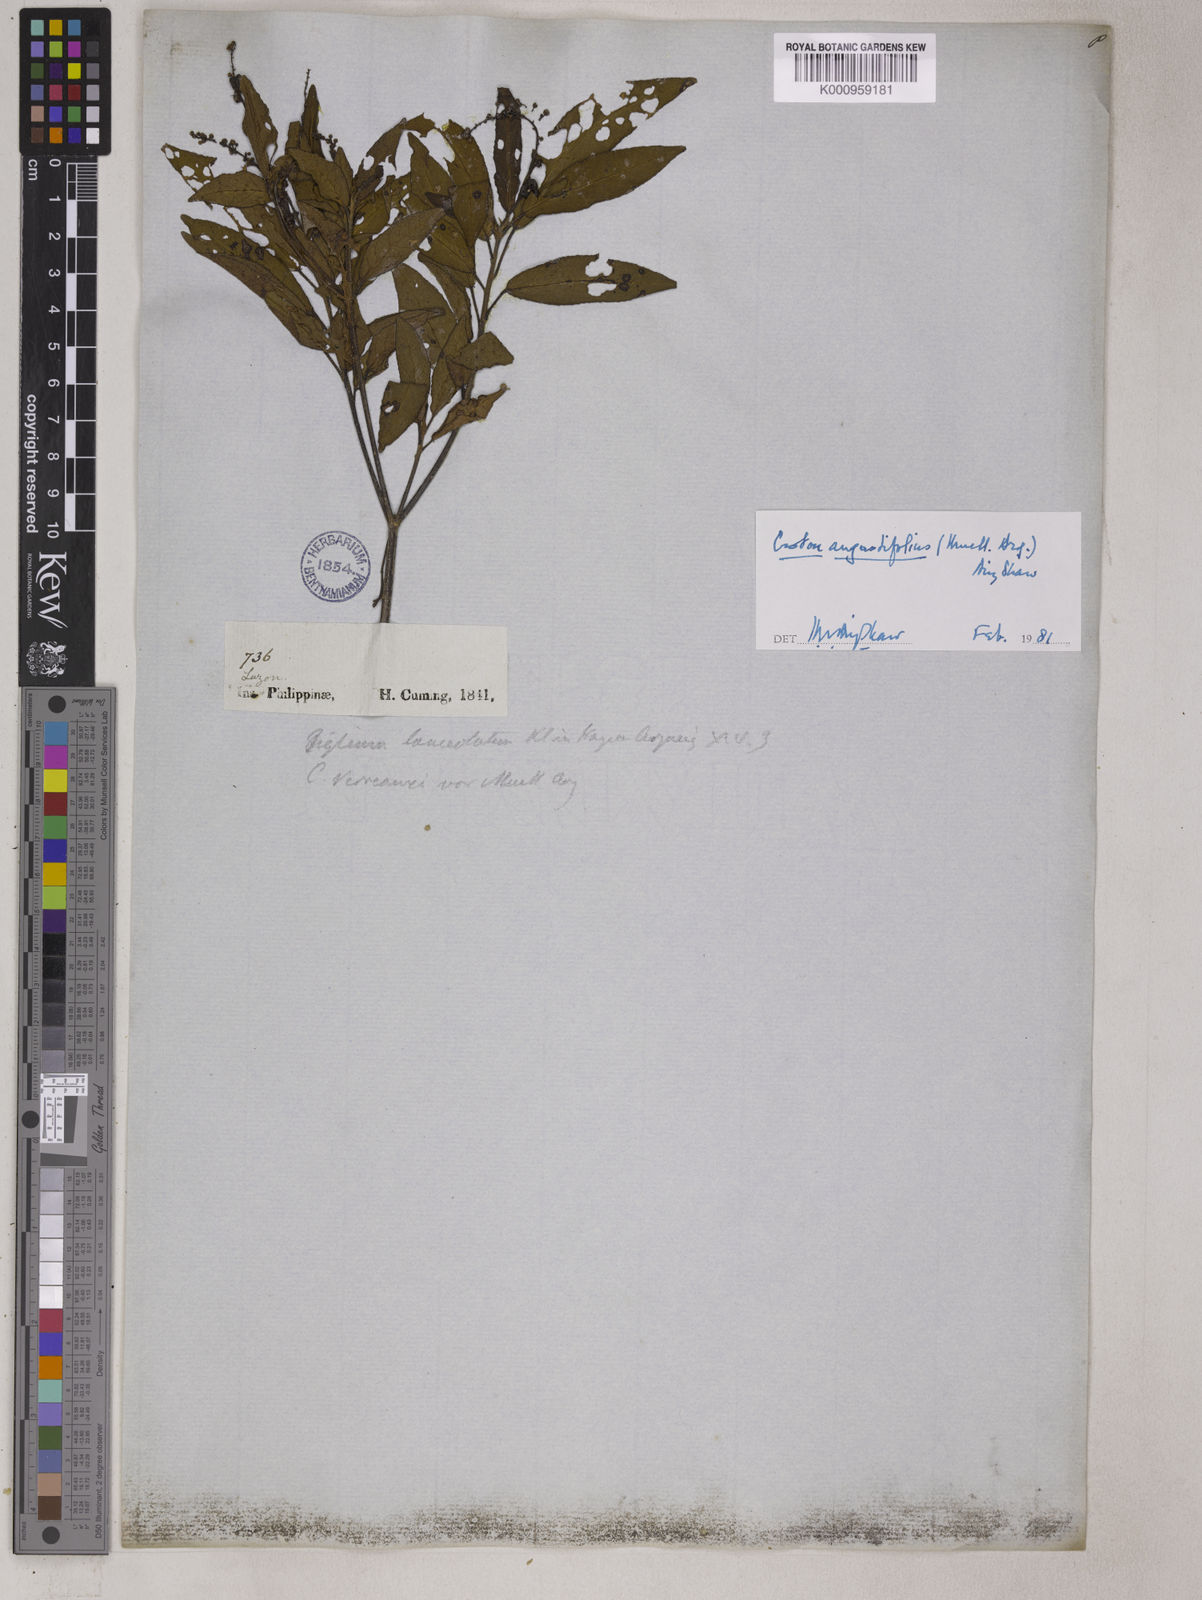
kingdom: Plantae
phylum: Tracheophyta
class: Magnoliopsida
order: Malpighiales
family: Euphorbiaceae
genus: Croton
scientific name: Croton
